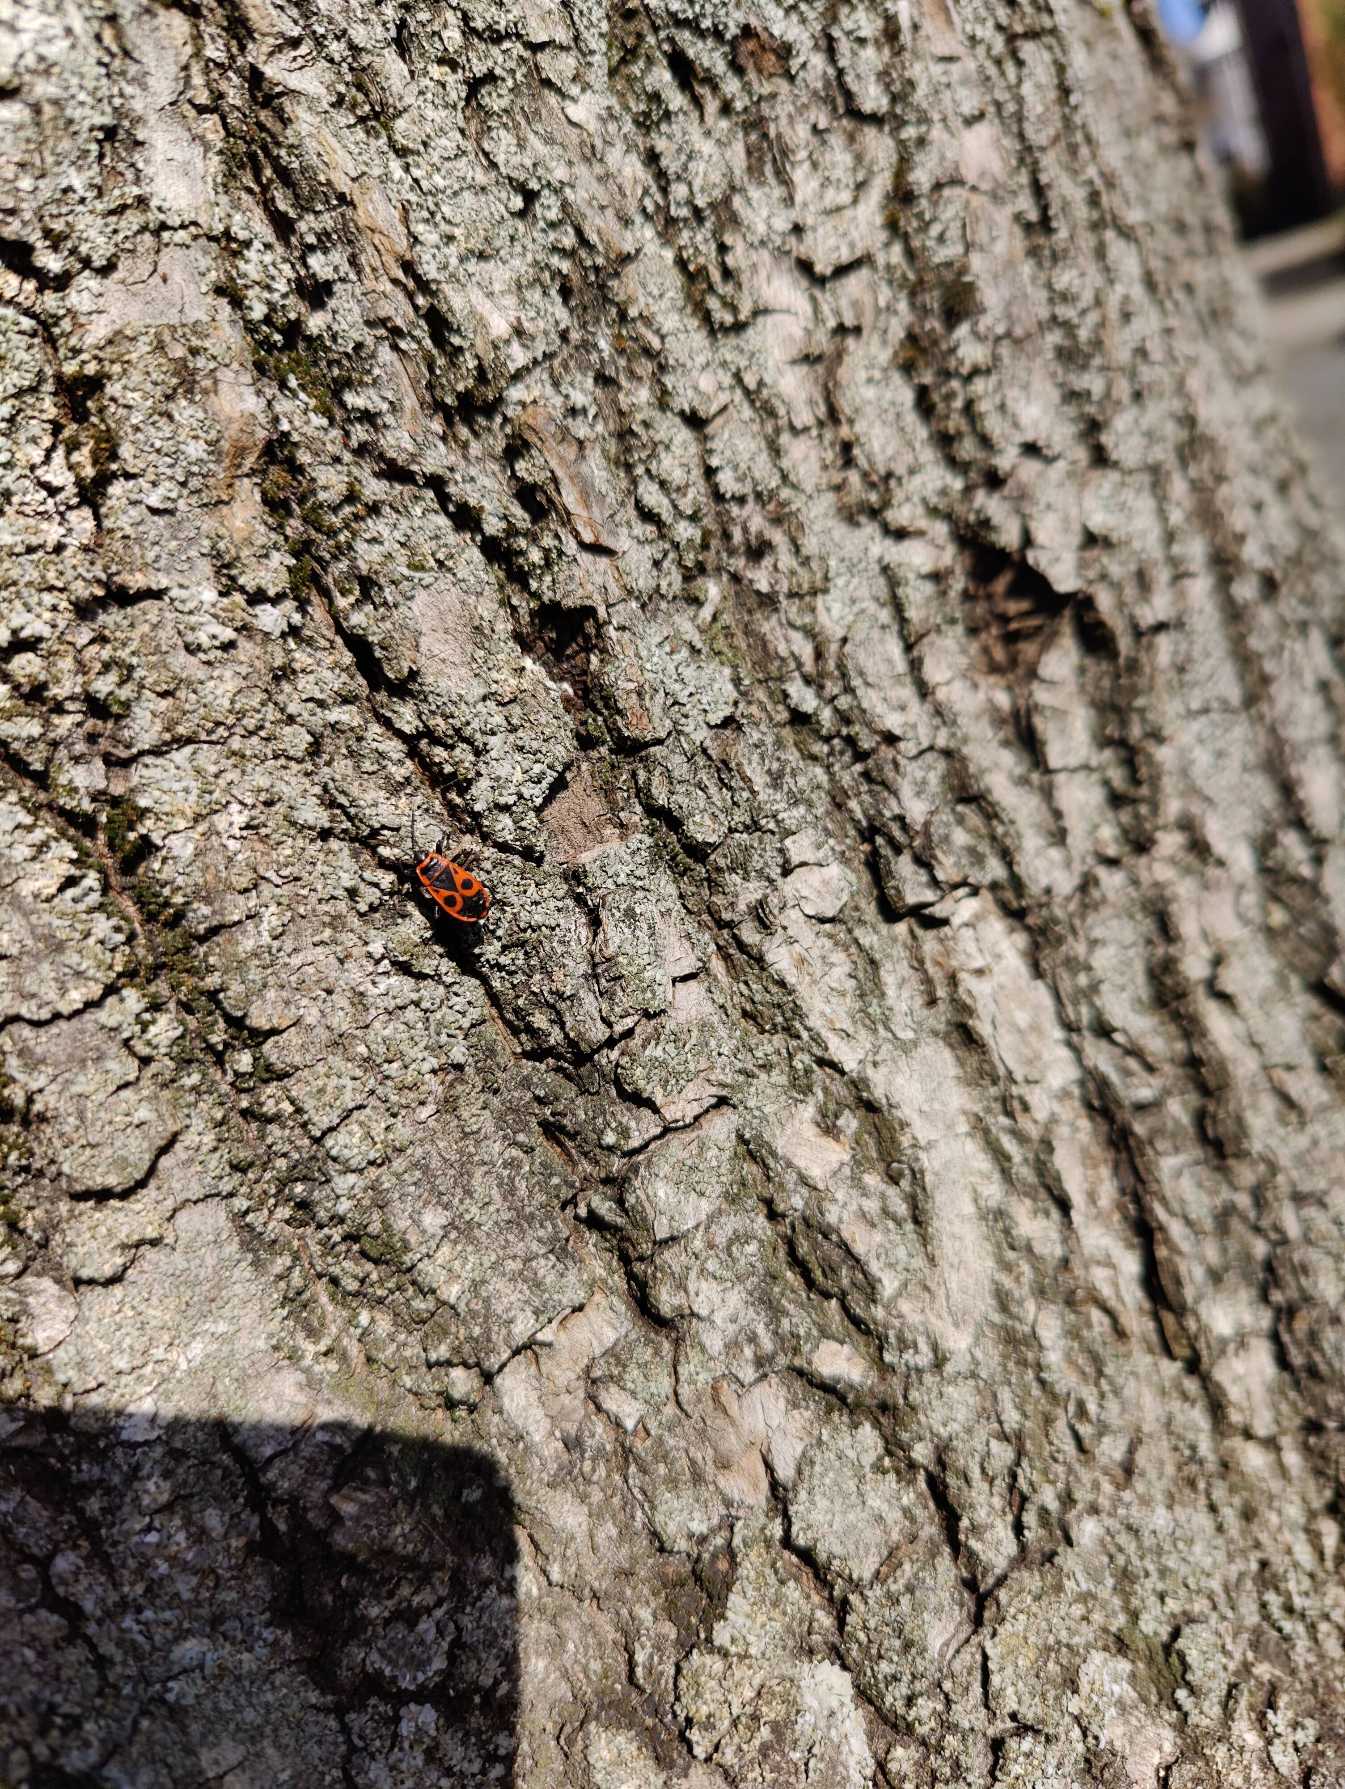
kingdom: Animalia
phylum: Arthropoda
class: Insecta
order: Hemiptera
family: Pyrrhocoridae
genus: Pyrrhocoris
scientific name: Pyrrhocoris apterus
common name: Ildtæge
